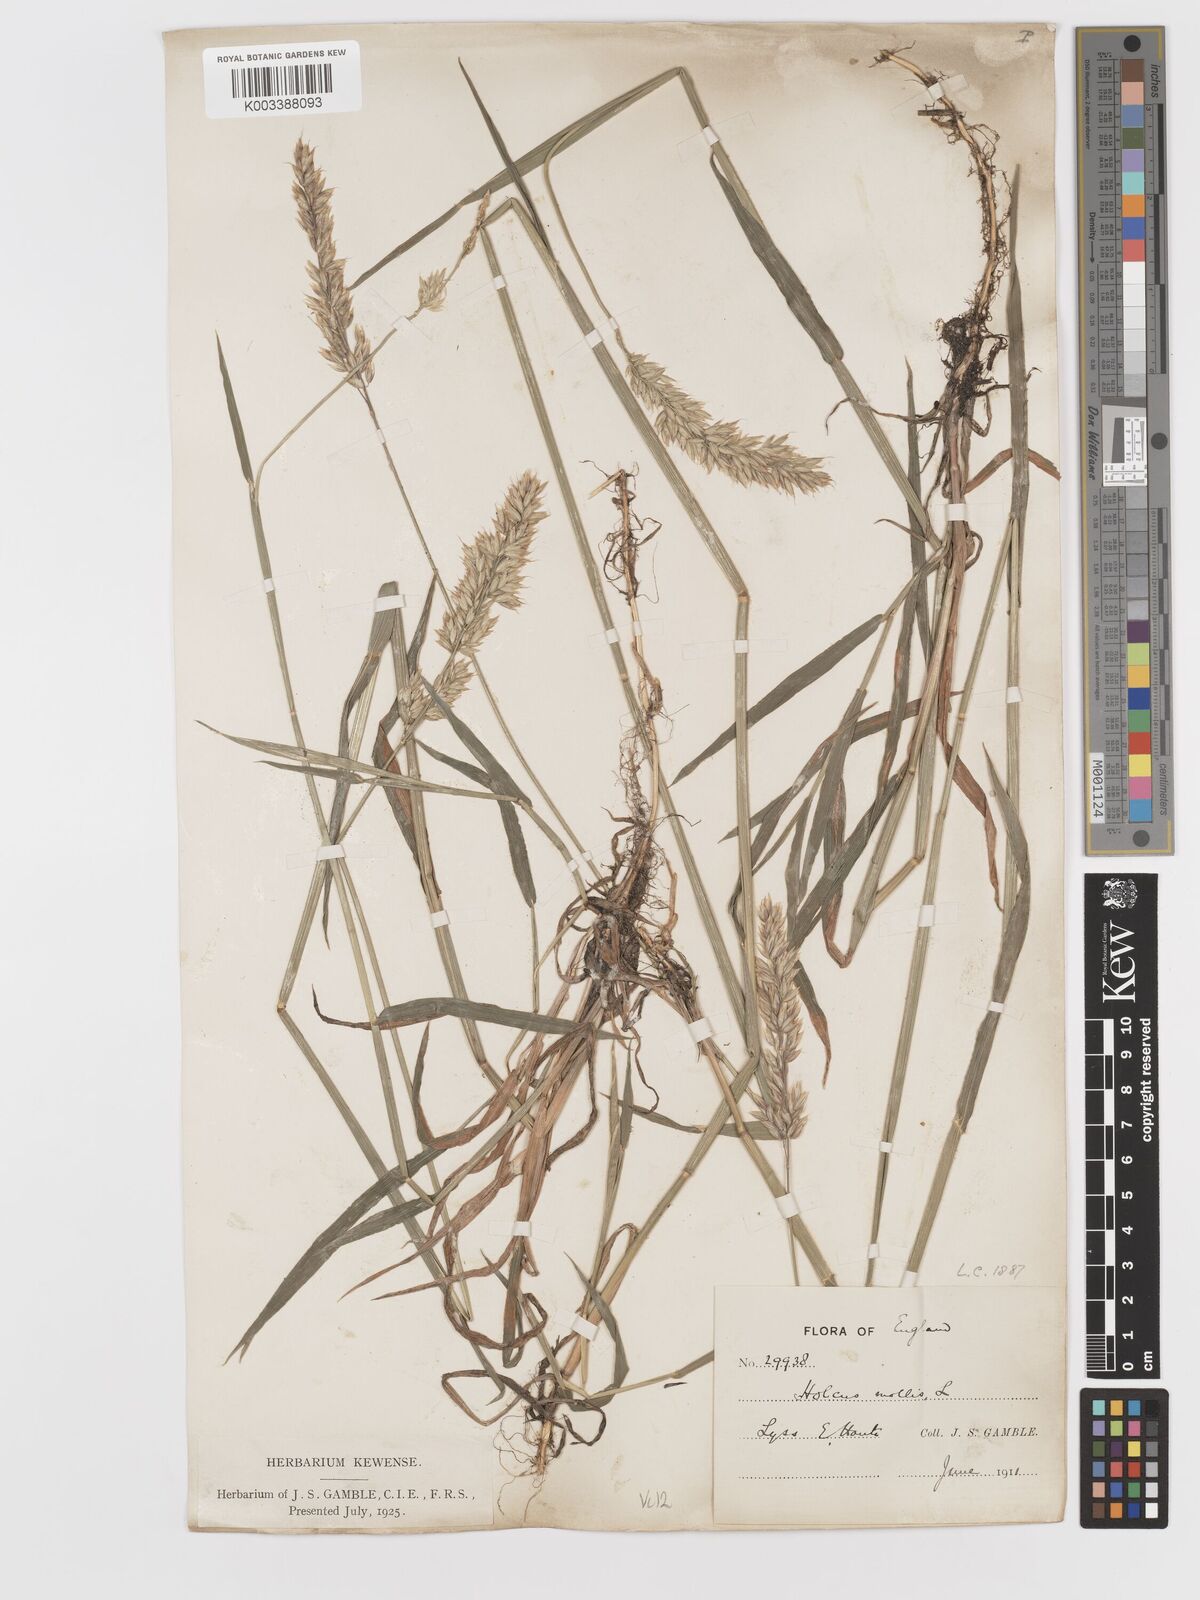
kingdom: Plantae
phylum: Tracheophyta
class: Liliopsida
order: Poales
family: Poaceae
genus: Holcus
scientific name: Holcus mollis
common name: Creeping velvetgrass
